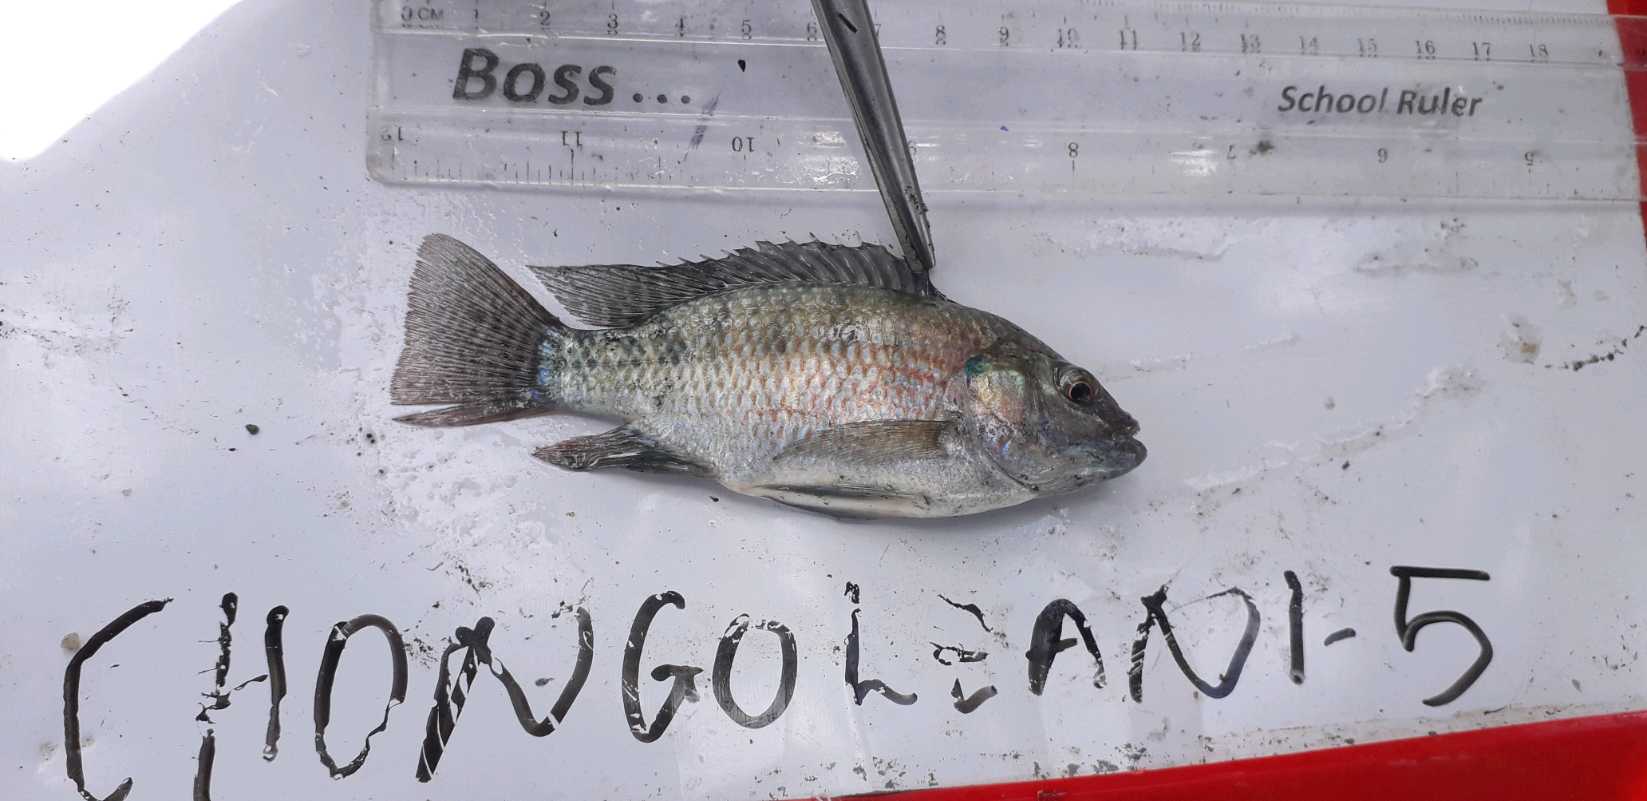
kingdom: Animalia
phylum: Chordata
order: Perciformes
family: Cichlidae
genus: Oreochromis
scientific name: Oreochromis urolepis
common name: Wami tilapia
